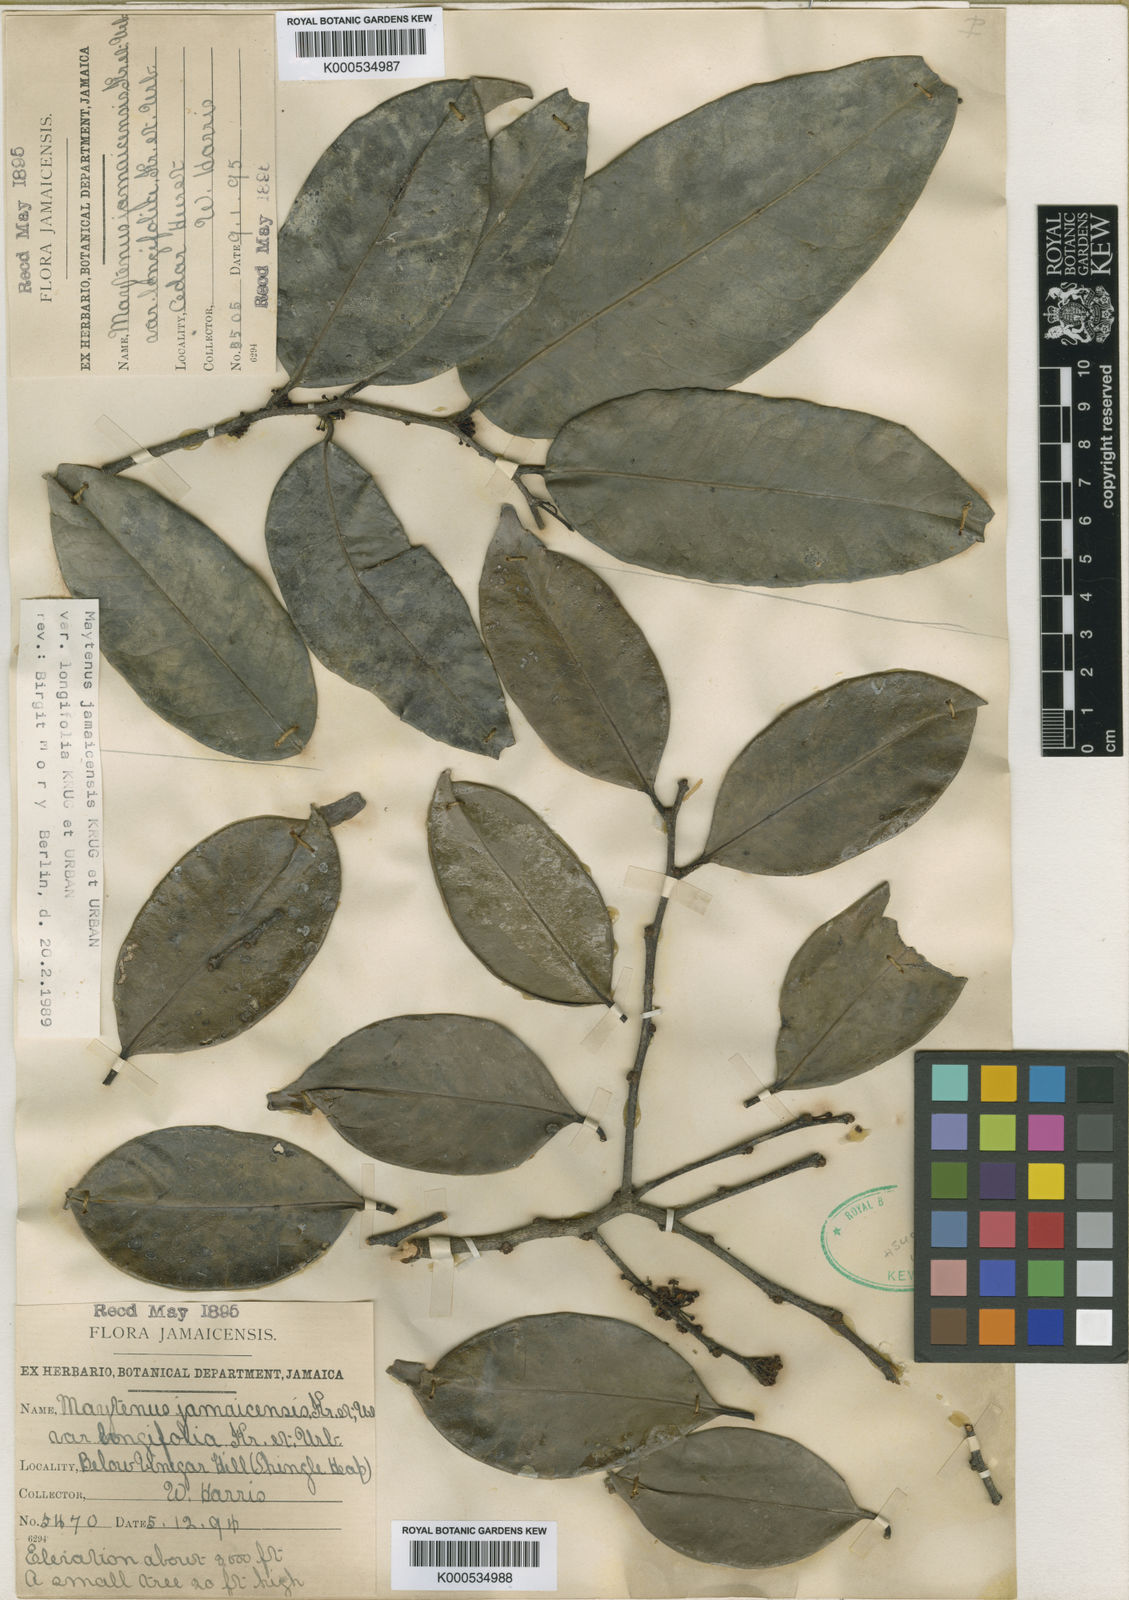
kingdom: Plantae
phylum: Tracheophyta
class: Magnoliopsida
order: Celastrales
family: Celastraceae
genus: Monteverdia
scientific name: Monteverdia jamaicensis
